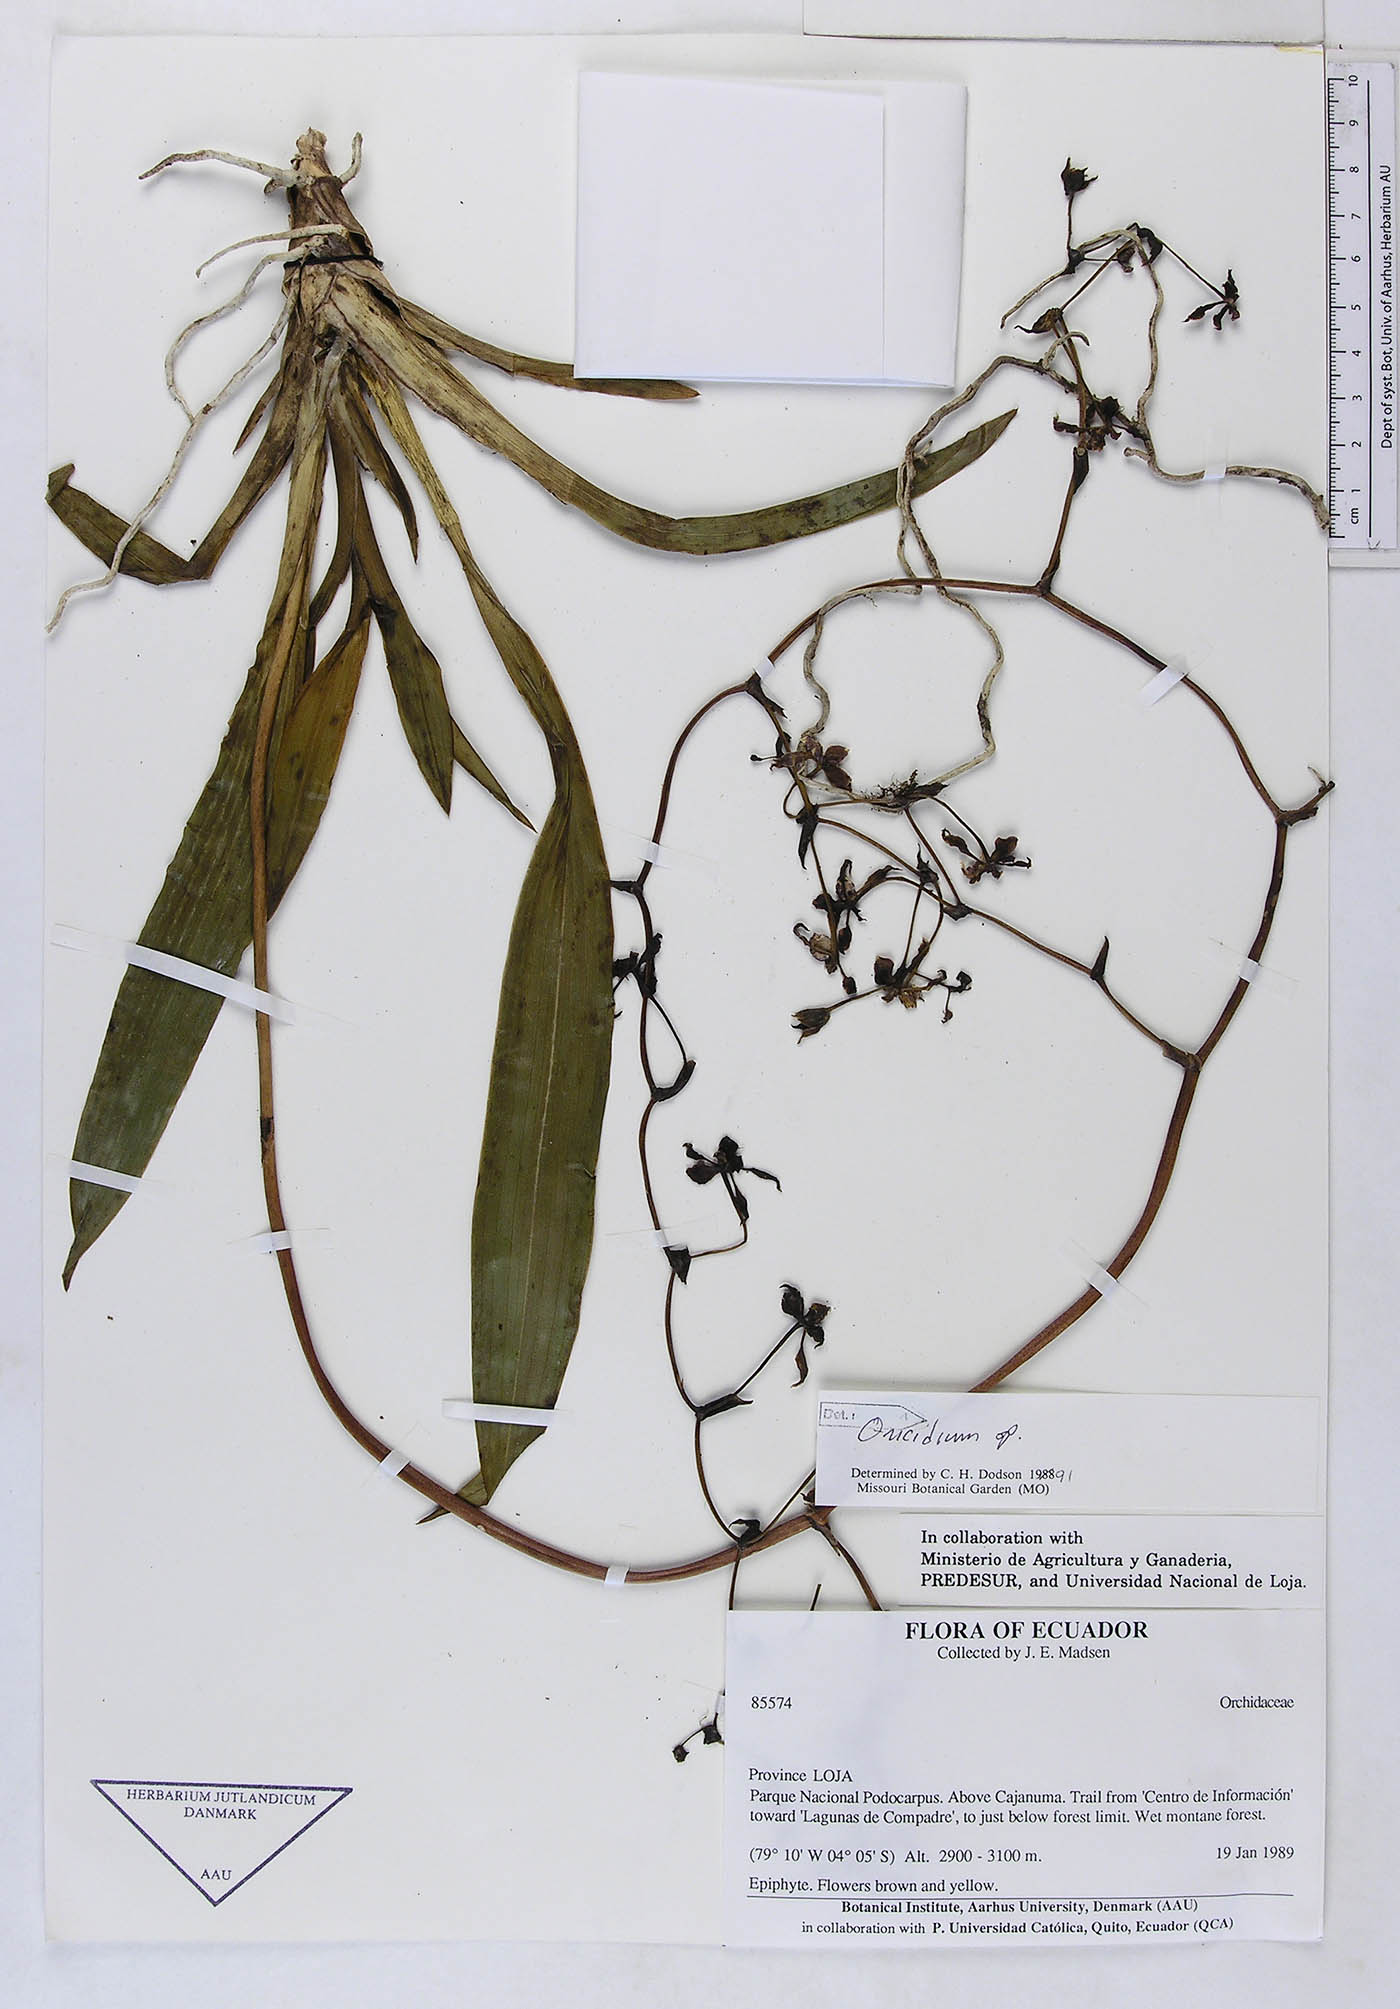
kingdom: Plantae
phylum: Tracheophyta
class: Liliopsida
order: Asparagales
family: Orchidaceae
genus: Oncidium
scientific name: Oncidium
